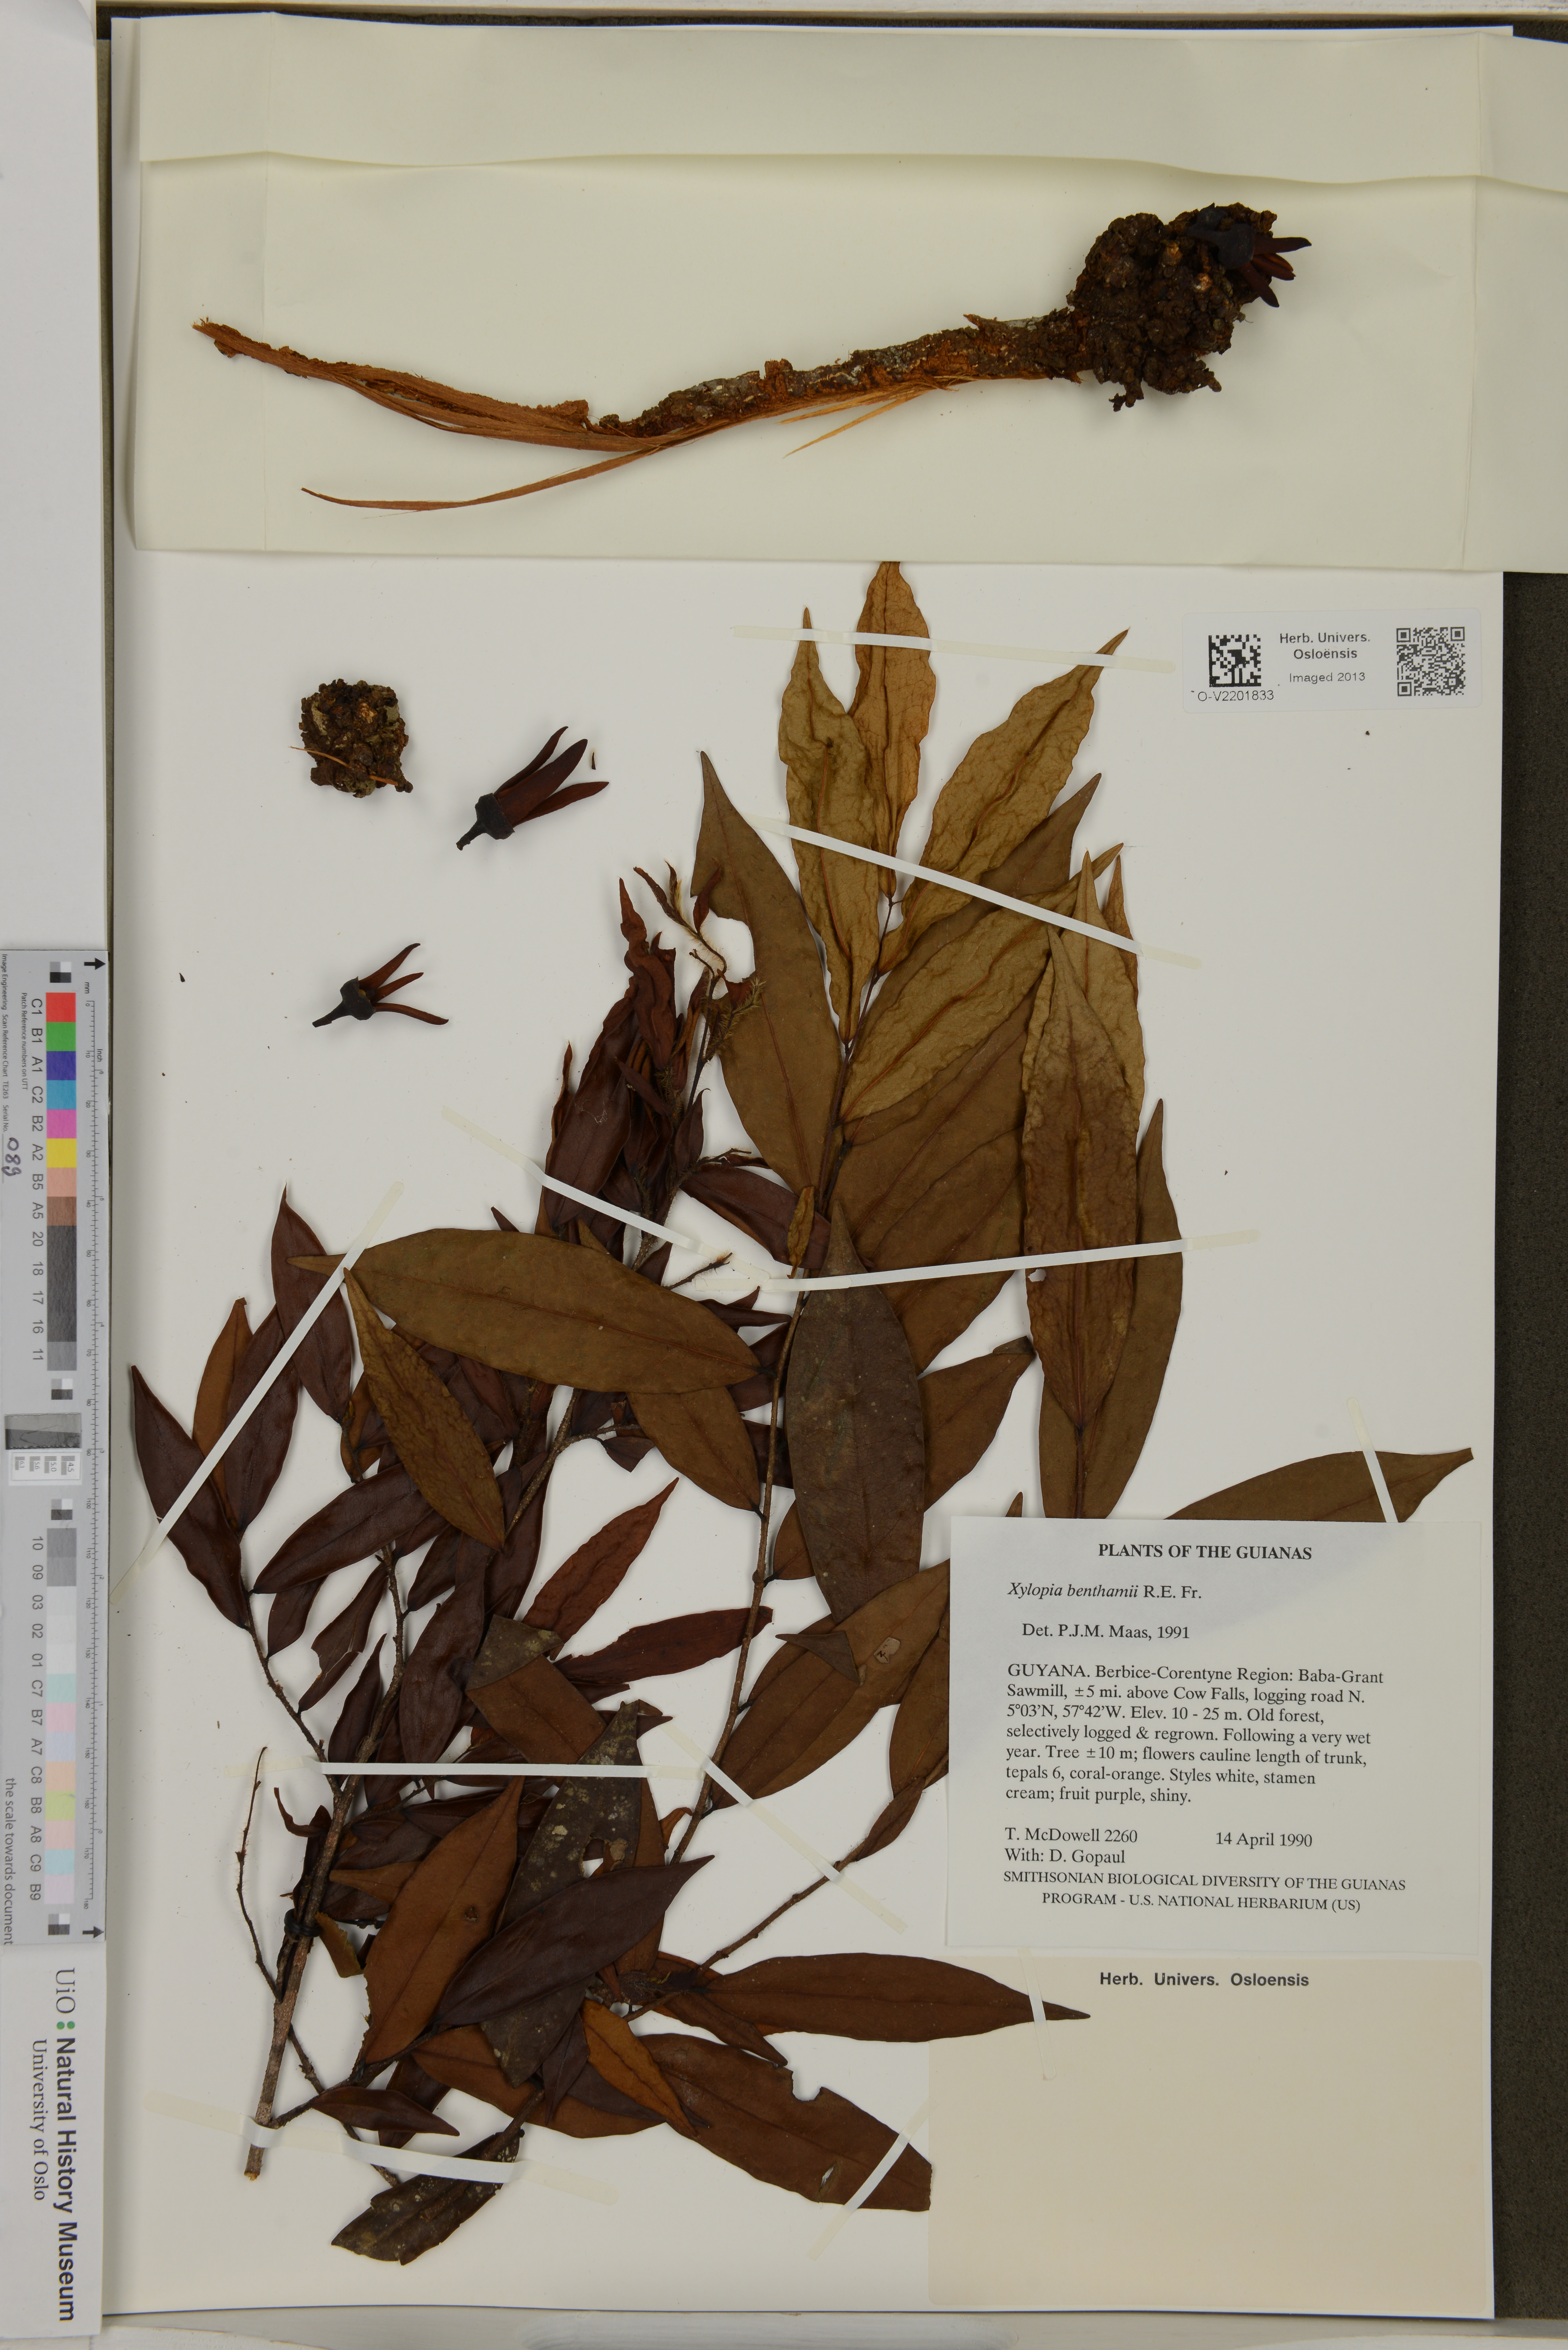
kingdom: Plantae
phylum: Tracheophyta
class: Magnoliopsida
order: Magnoliales
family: Annonaceae
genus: Xylopia
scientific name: Xylopia benthamii
